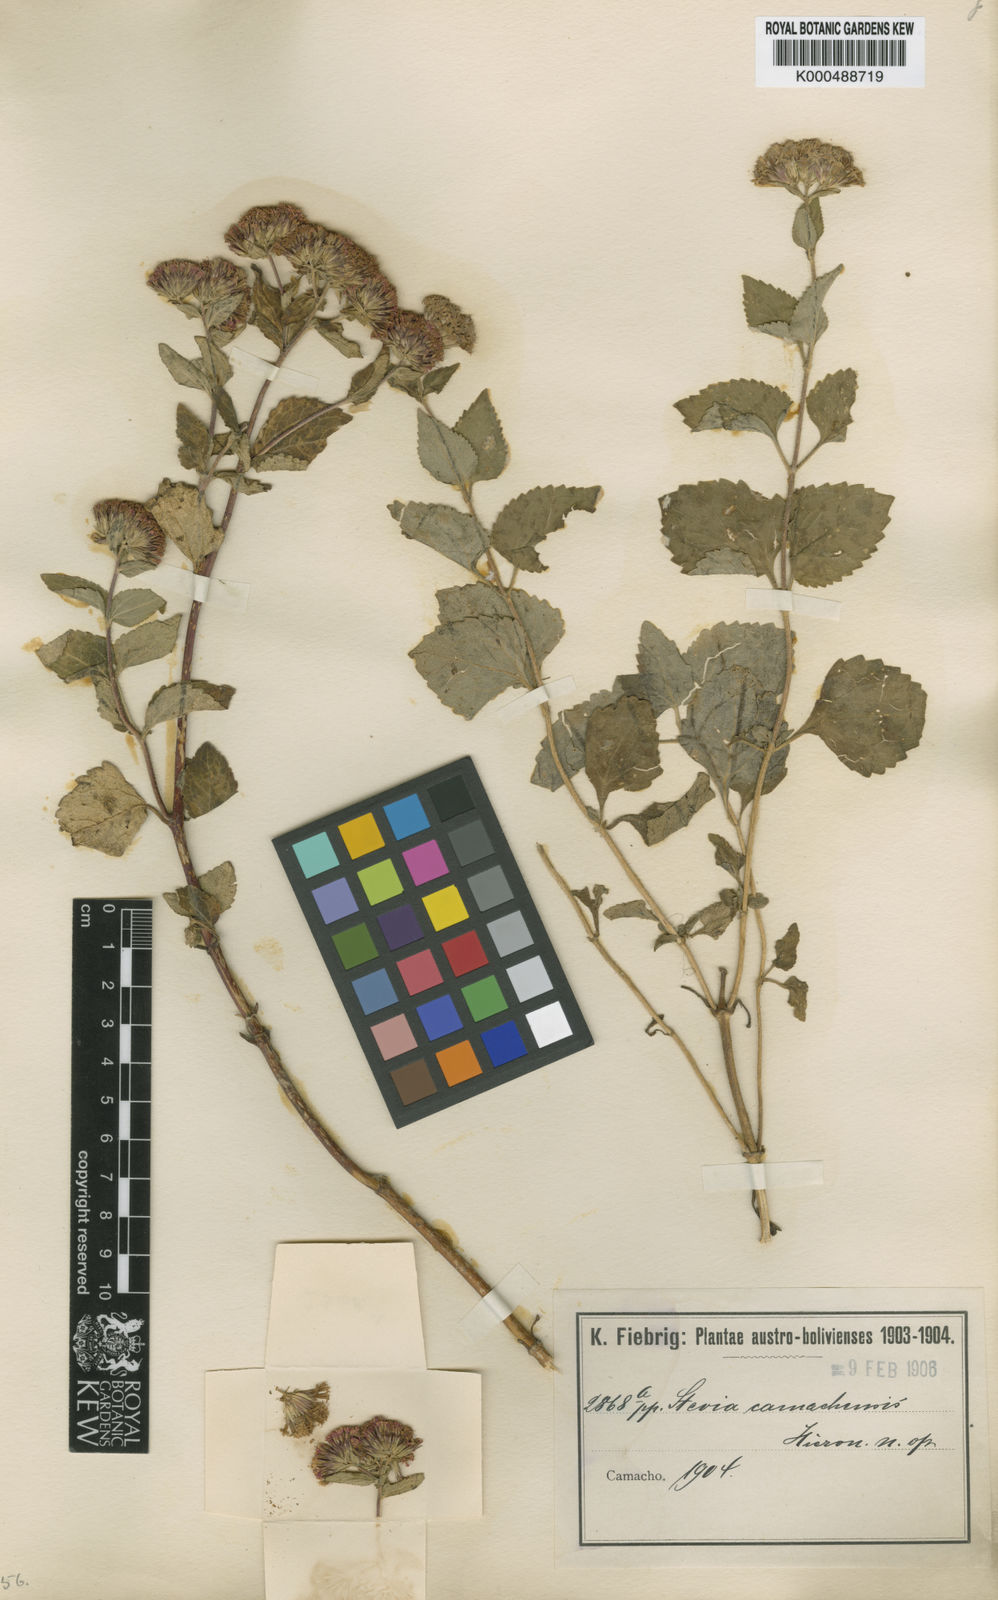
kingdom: Plantae
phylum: Tracheophyta
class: Magnoliopsida
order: Asterales
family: Asteraceae
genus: Stevia
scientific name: Stevia camachensis
